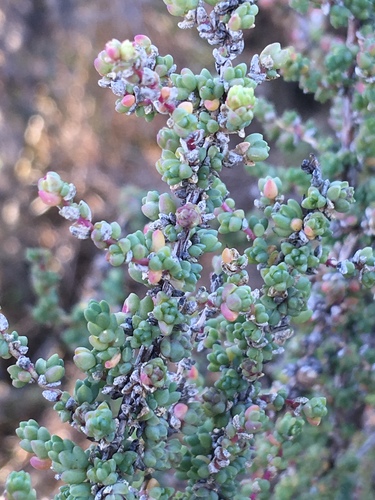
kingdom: Plantae
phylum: Tracheophyta
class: Magnoliopsida
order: Caryophyllales
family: Amaranthaceae
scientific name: Amaranthaceae
